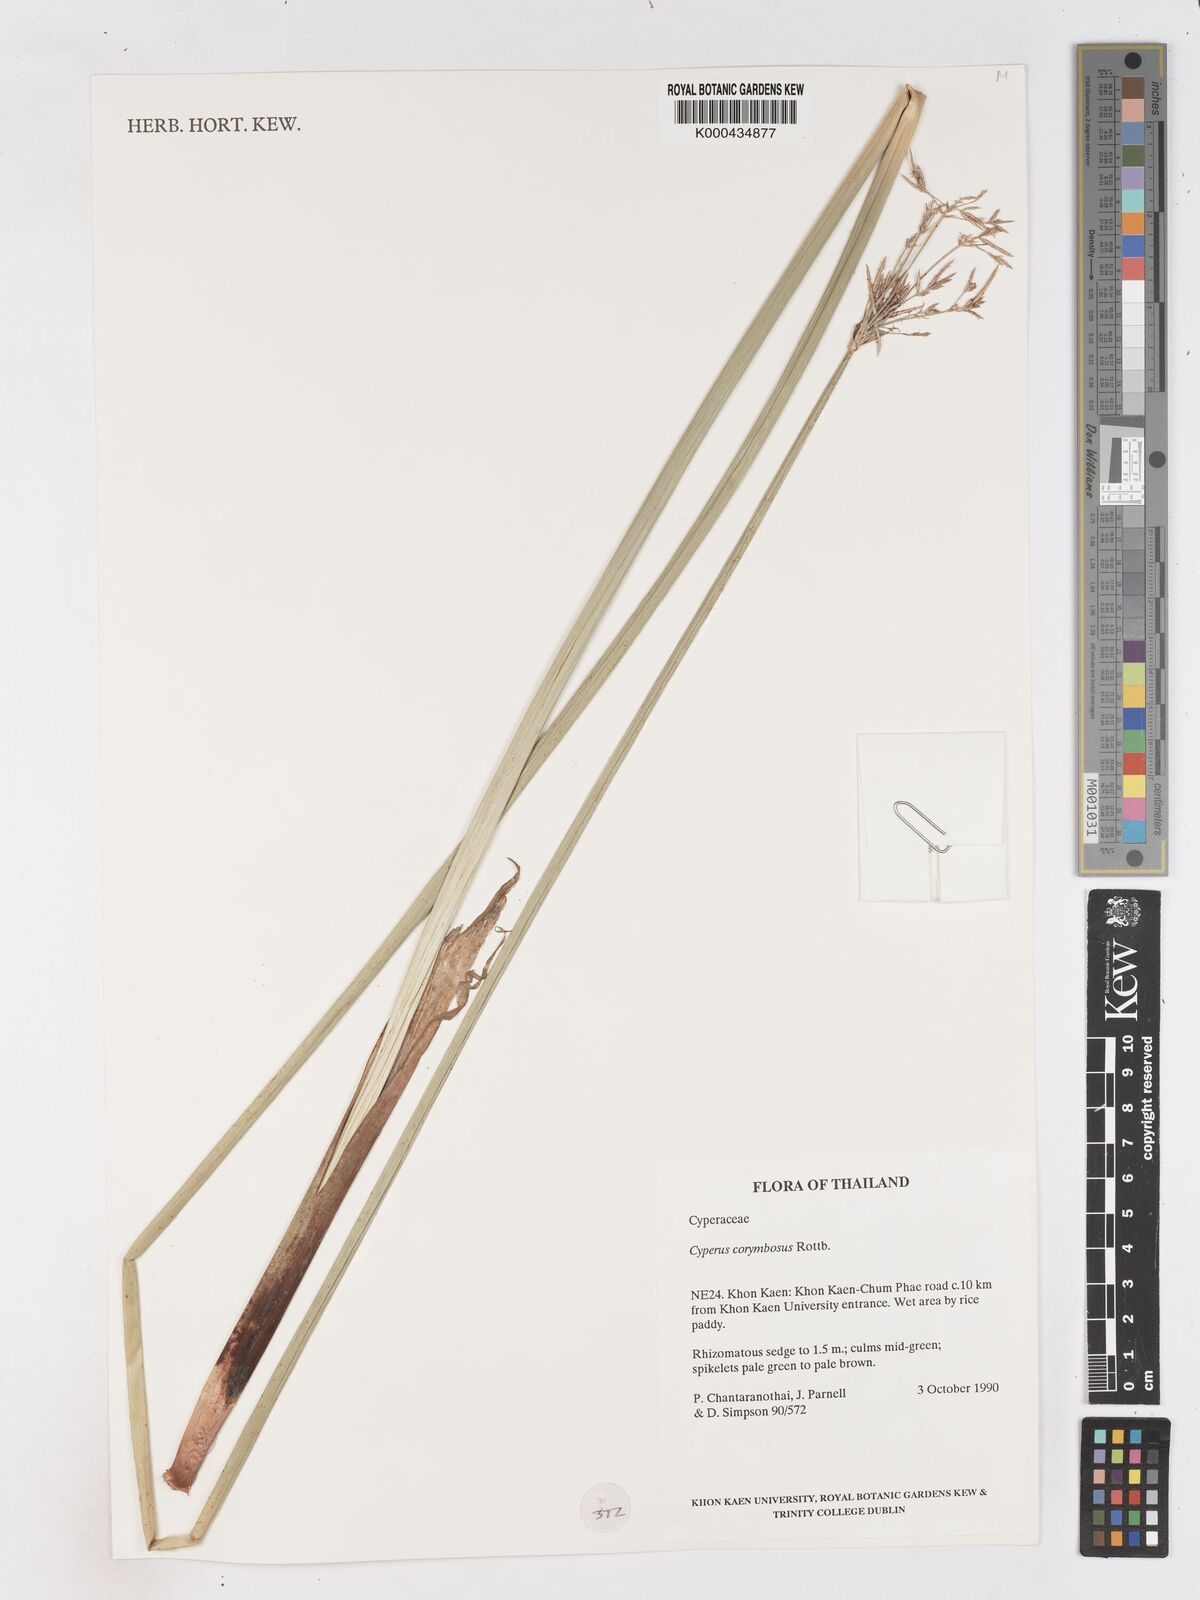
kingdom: Plantae
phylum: Tracheophyta
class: Liliopsida
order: Poales
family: Cyperaceae
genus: Cyperus
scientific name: Cyperus corymbosus
